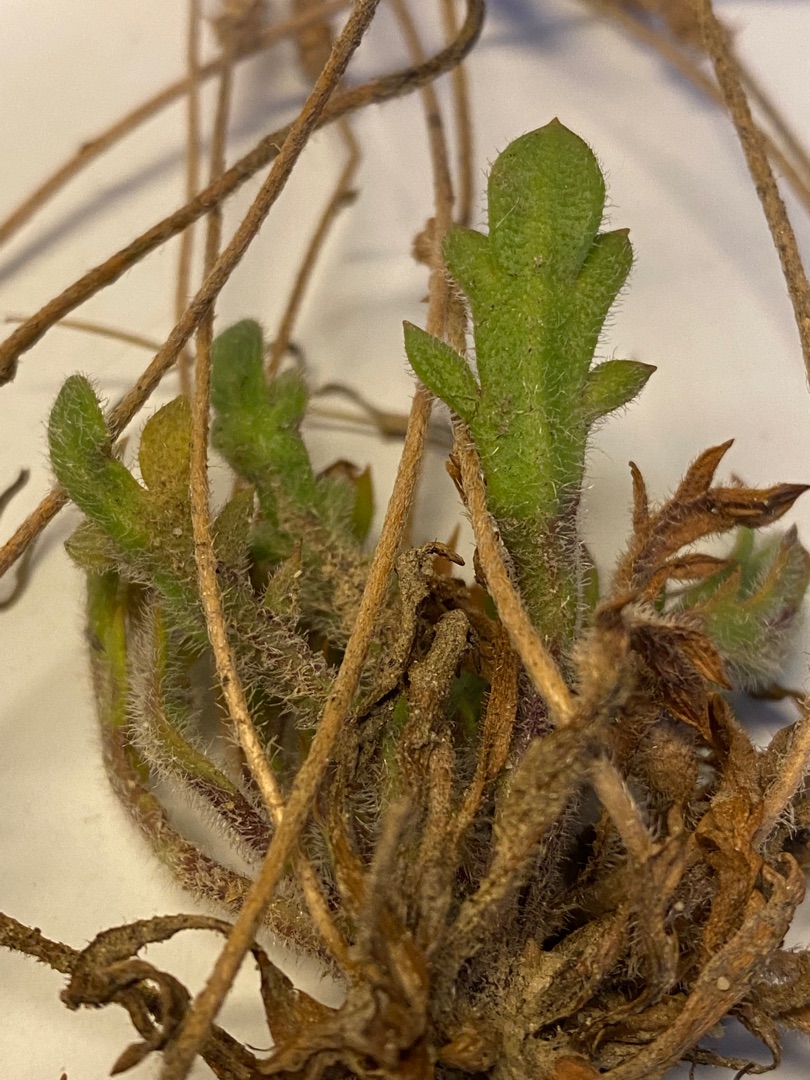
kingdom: Plantae
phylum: Tracheophyta
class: Magnoliopsida
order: Lamiales
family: Plantaginaceae
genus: Plantago
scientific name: Plantago coronopus
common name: Fliget vejbred
